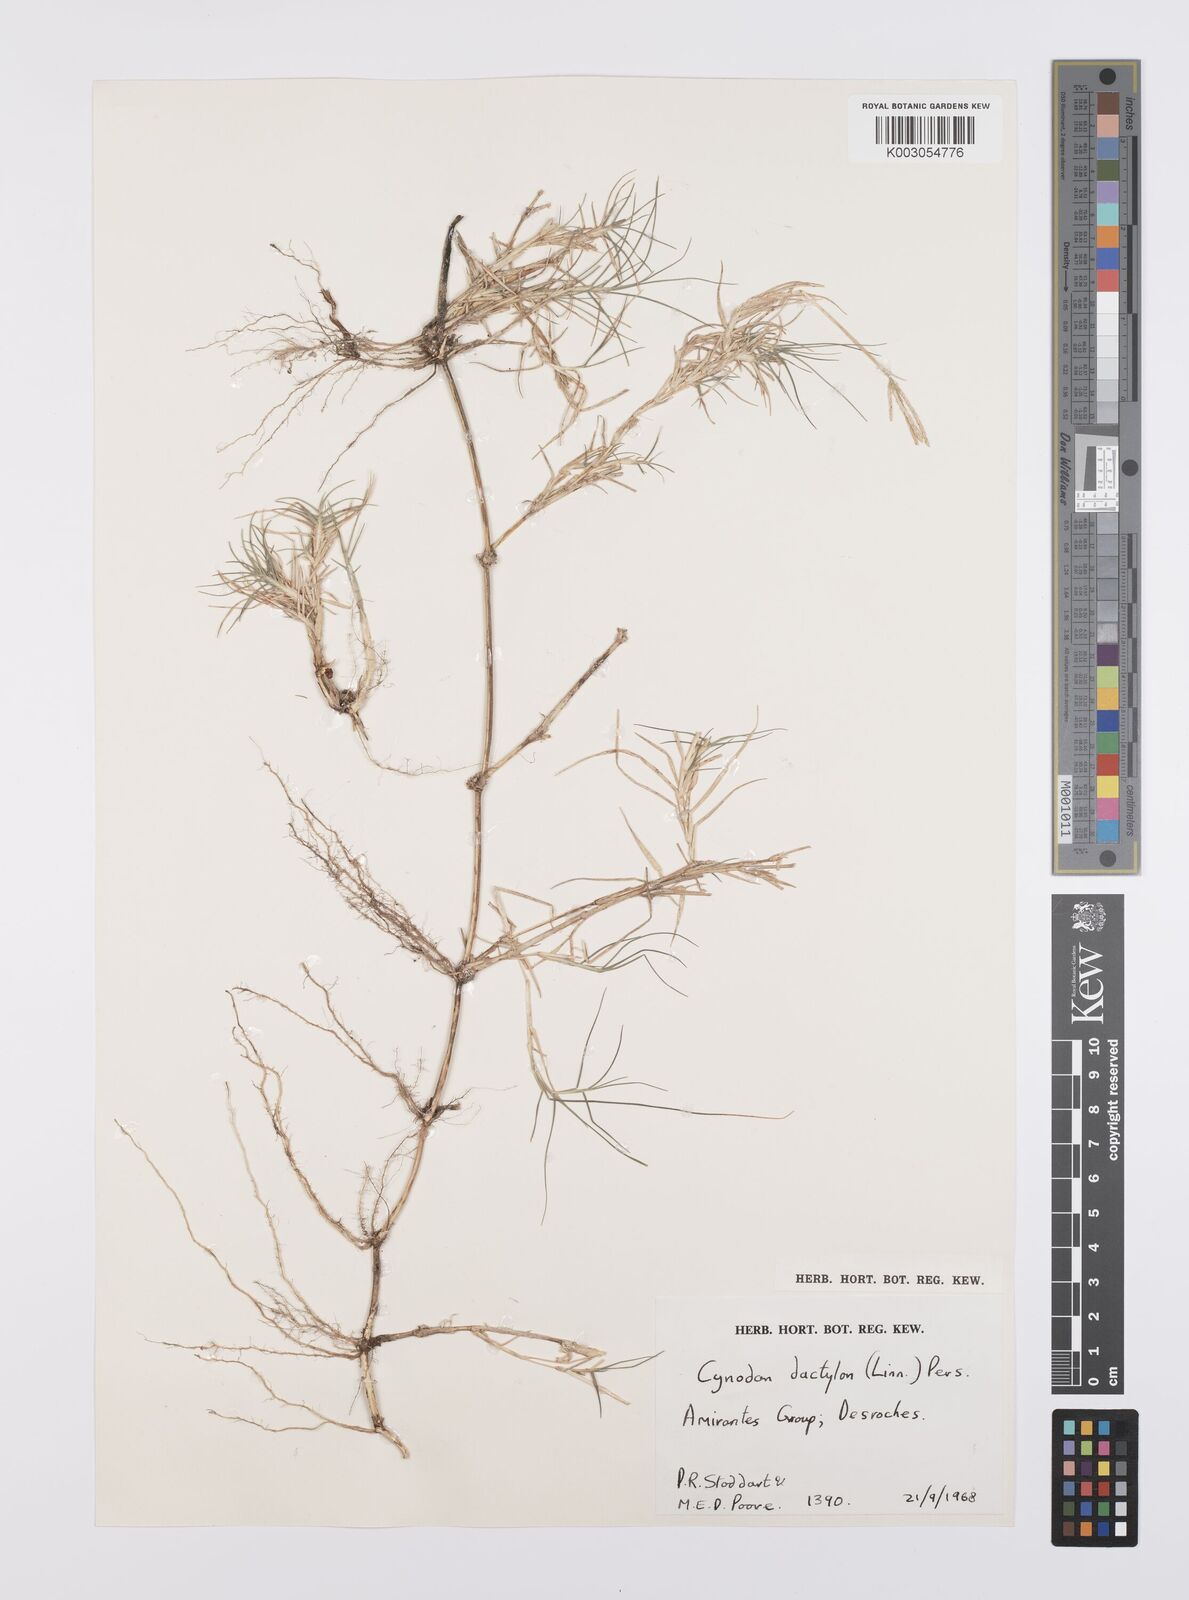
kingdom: Plantae
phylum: Tracheophyta
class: Liliopsida
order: Poales
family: Poaceae
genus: Cynodon
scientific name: Cynodon dactylon
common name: Bermuda grass
